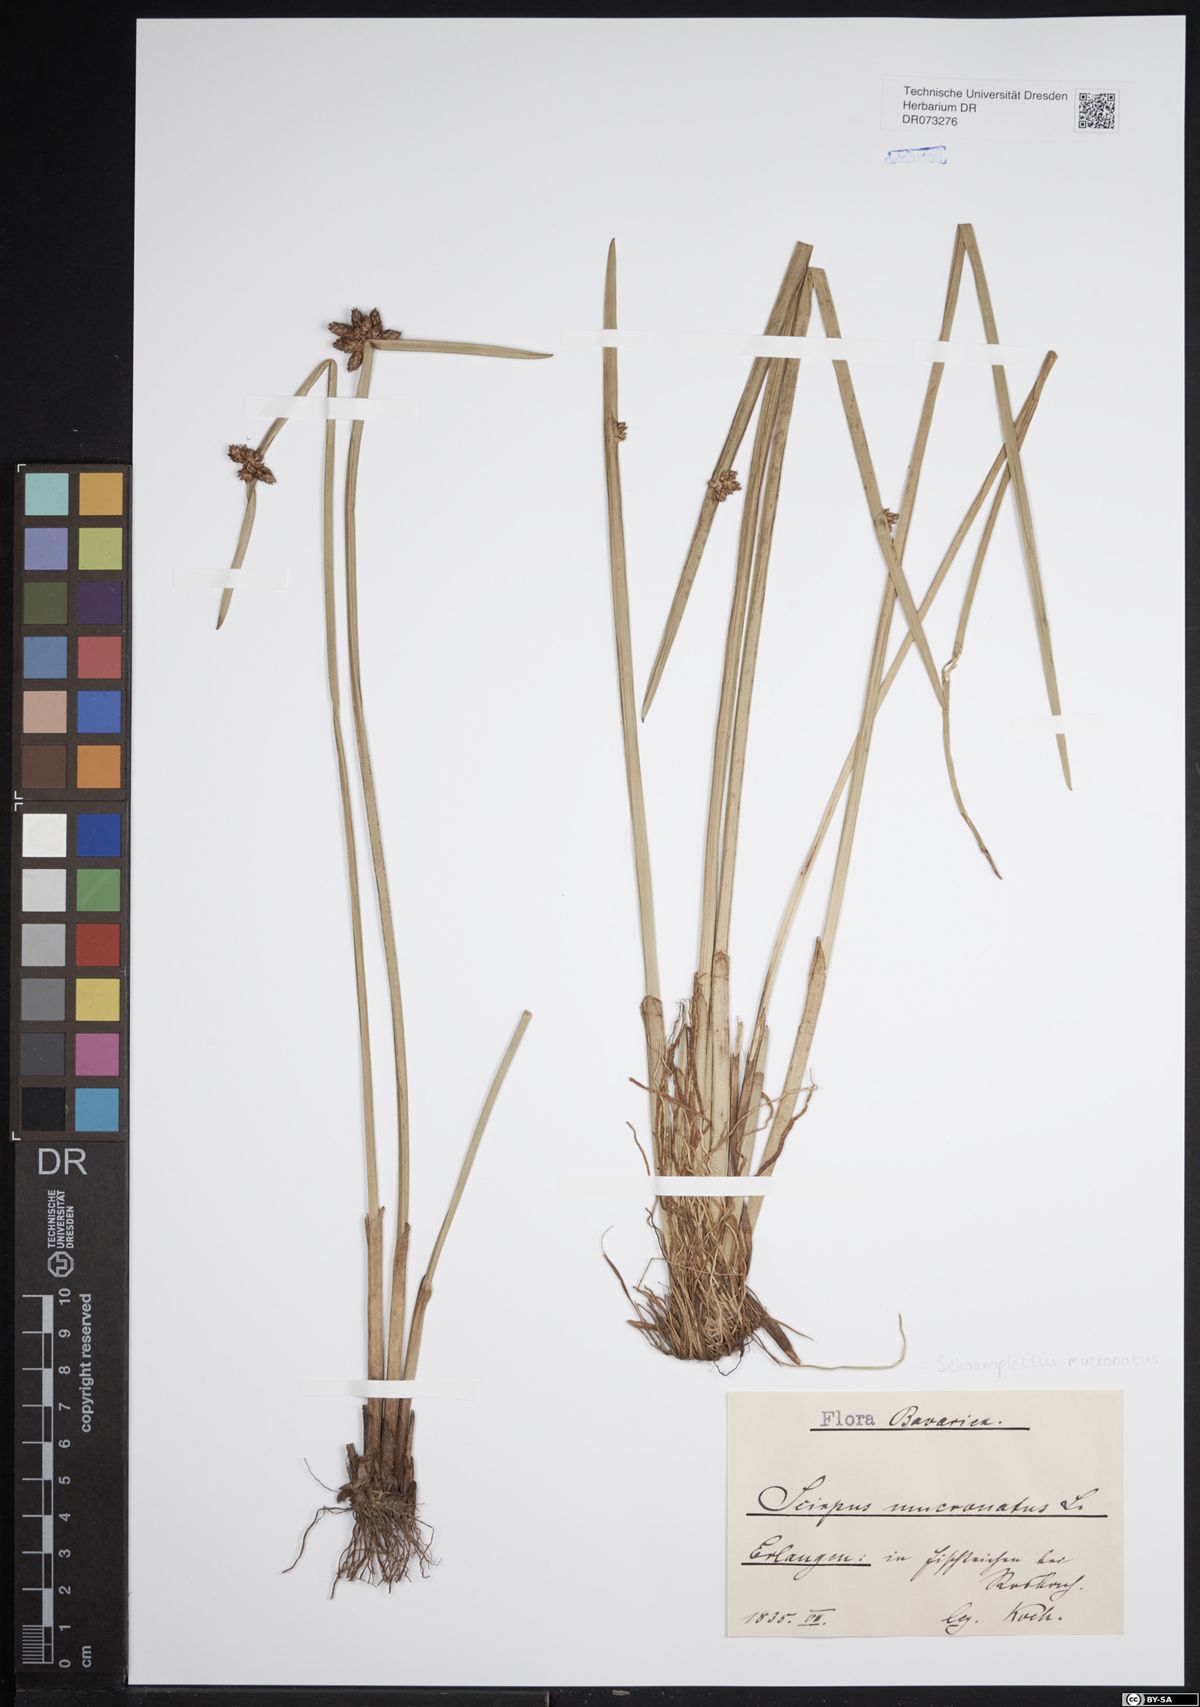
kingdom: Plantae
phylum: Tracheophyta
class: Liliopsida
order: Poales
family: Cyperaceae
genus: Schoenoplectiella
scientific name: Schoenoplectiella mucronata
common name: Bog bulrush
